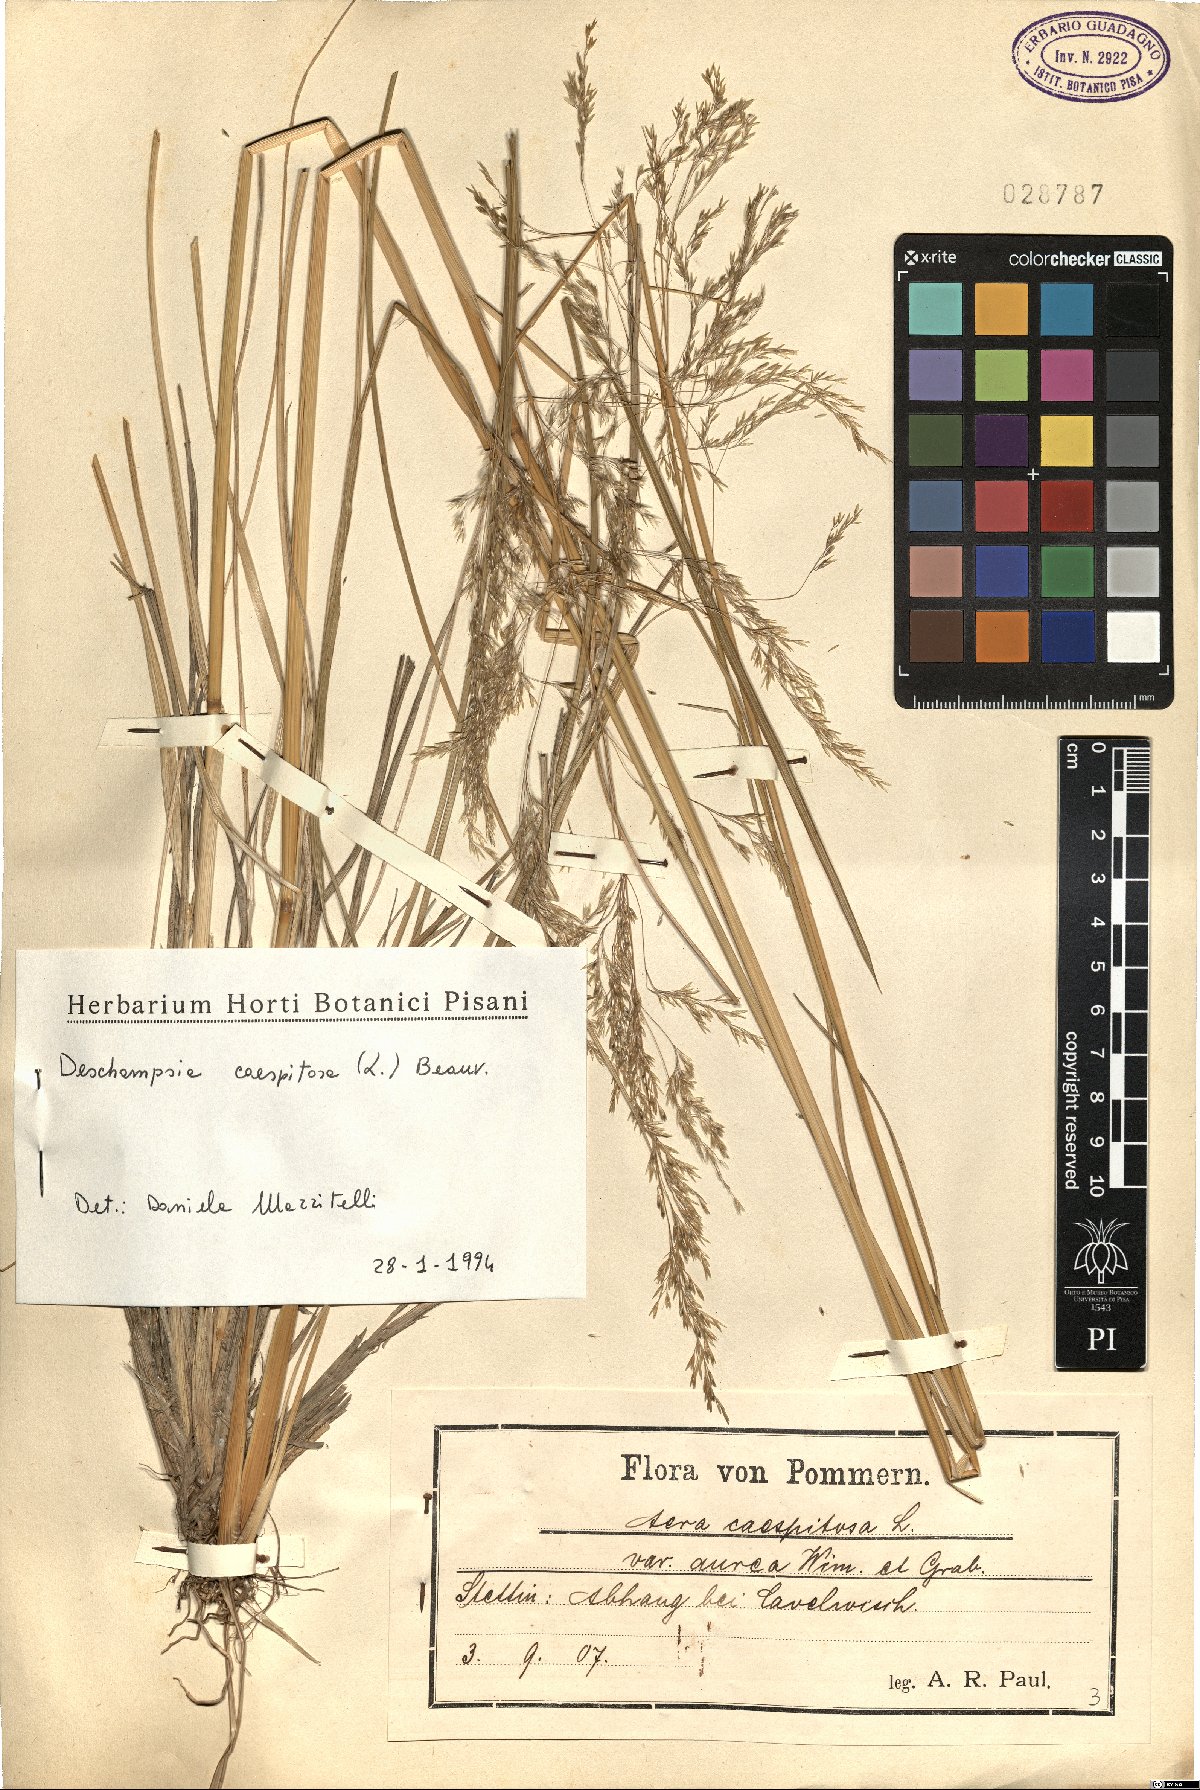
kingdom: Plantae
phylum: Tracheophyta
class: Liliopsida
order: Poales
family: Poaceae
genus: Deschampsia
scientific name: Deschampsia cespitosa
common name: Tufted hair-grass
